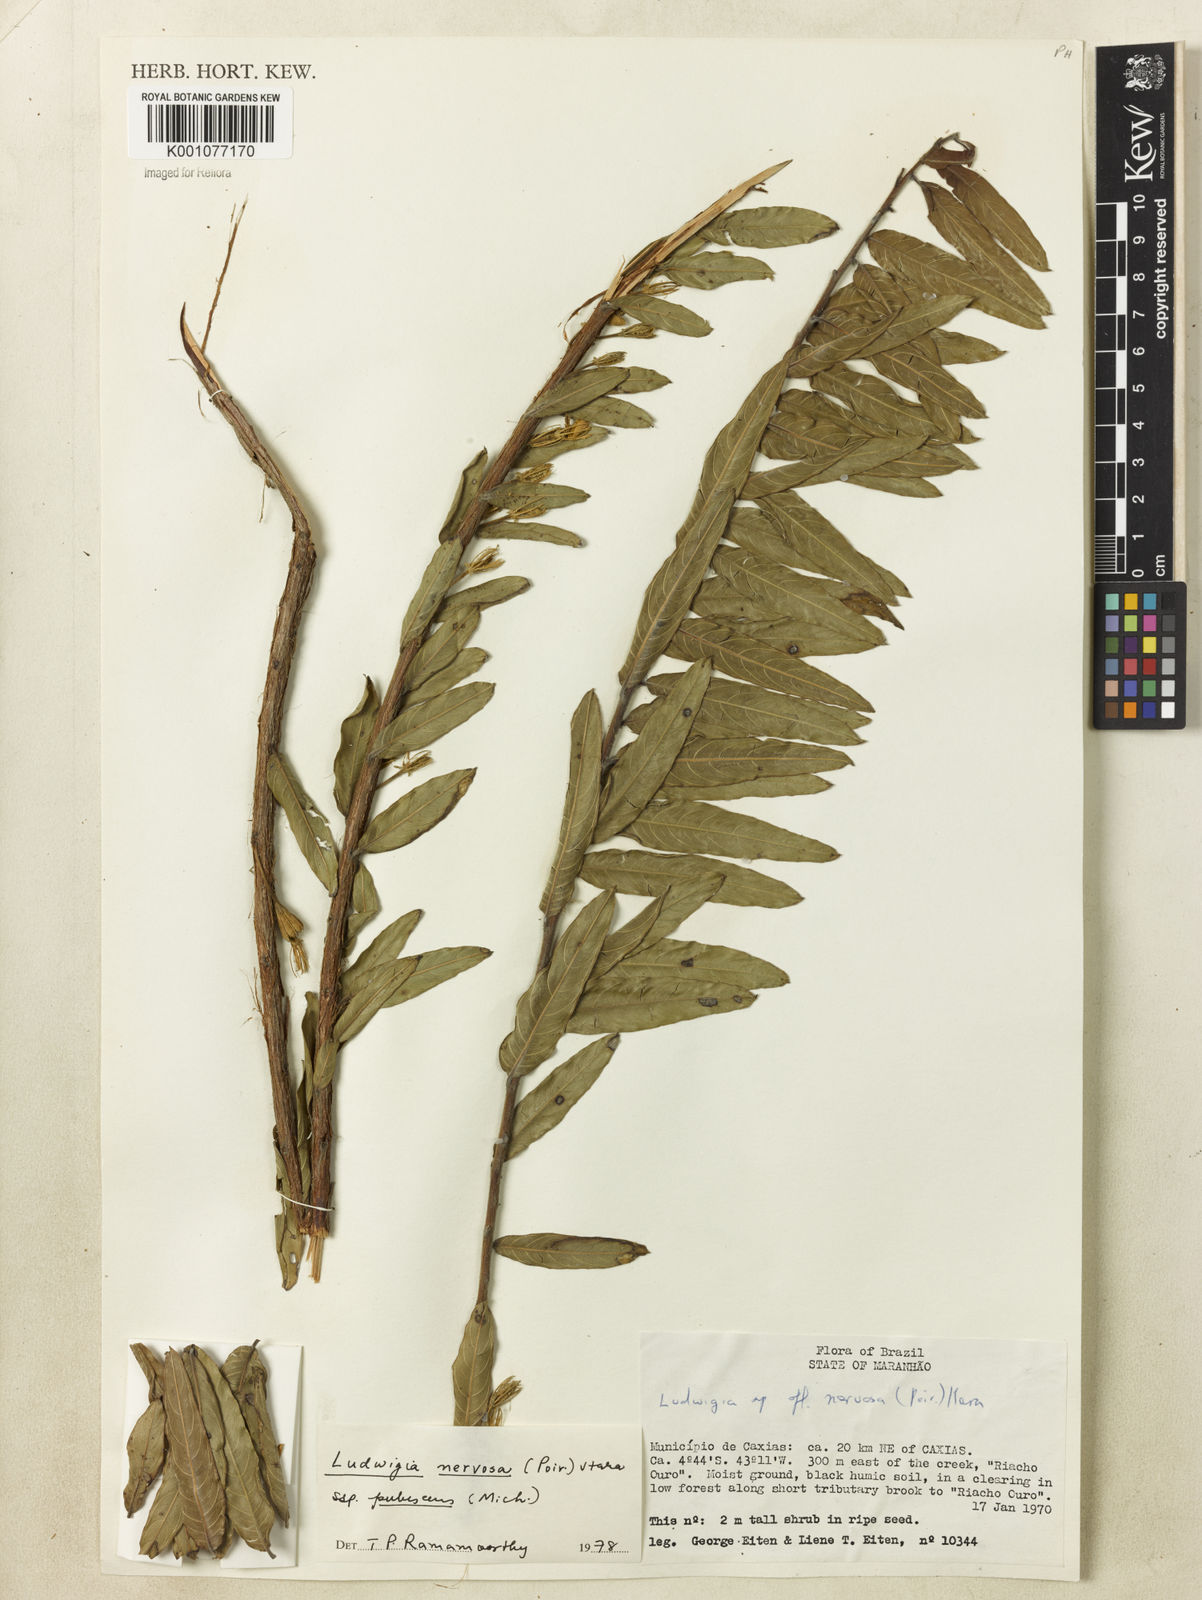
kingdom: Plantae
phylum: Tracheophyta
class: Magnoliopsida
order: Myrtales
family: Onagraceae
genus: Ludwigia
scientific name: Ludwigia nervosa
